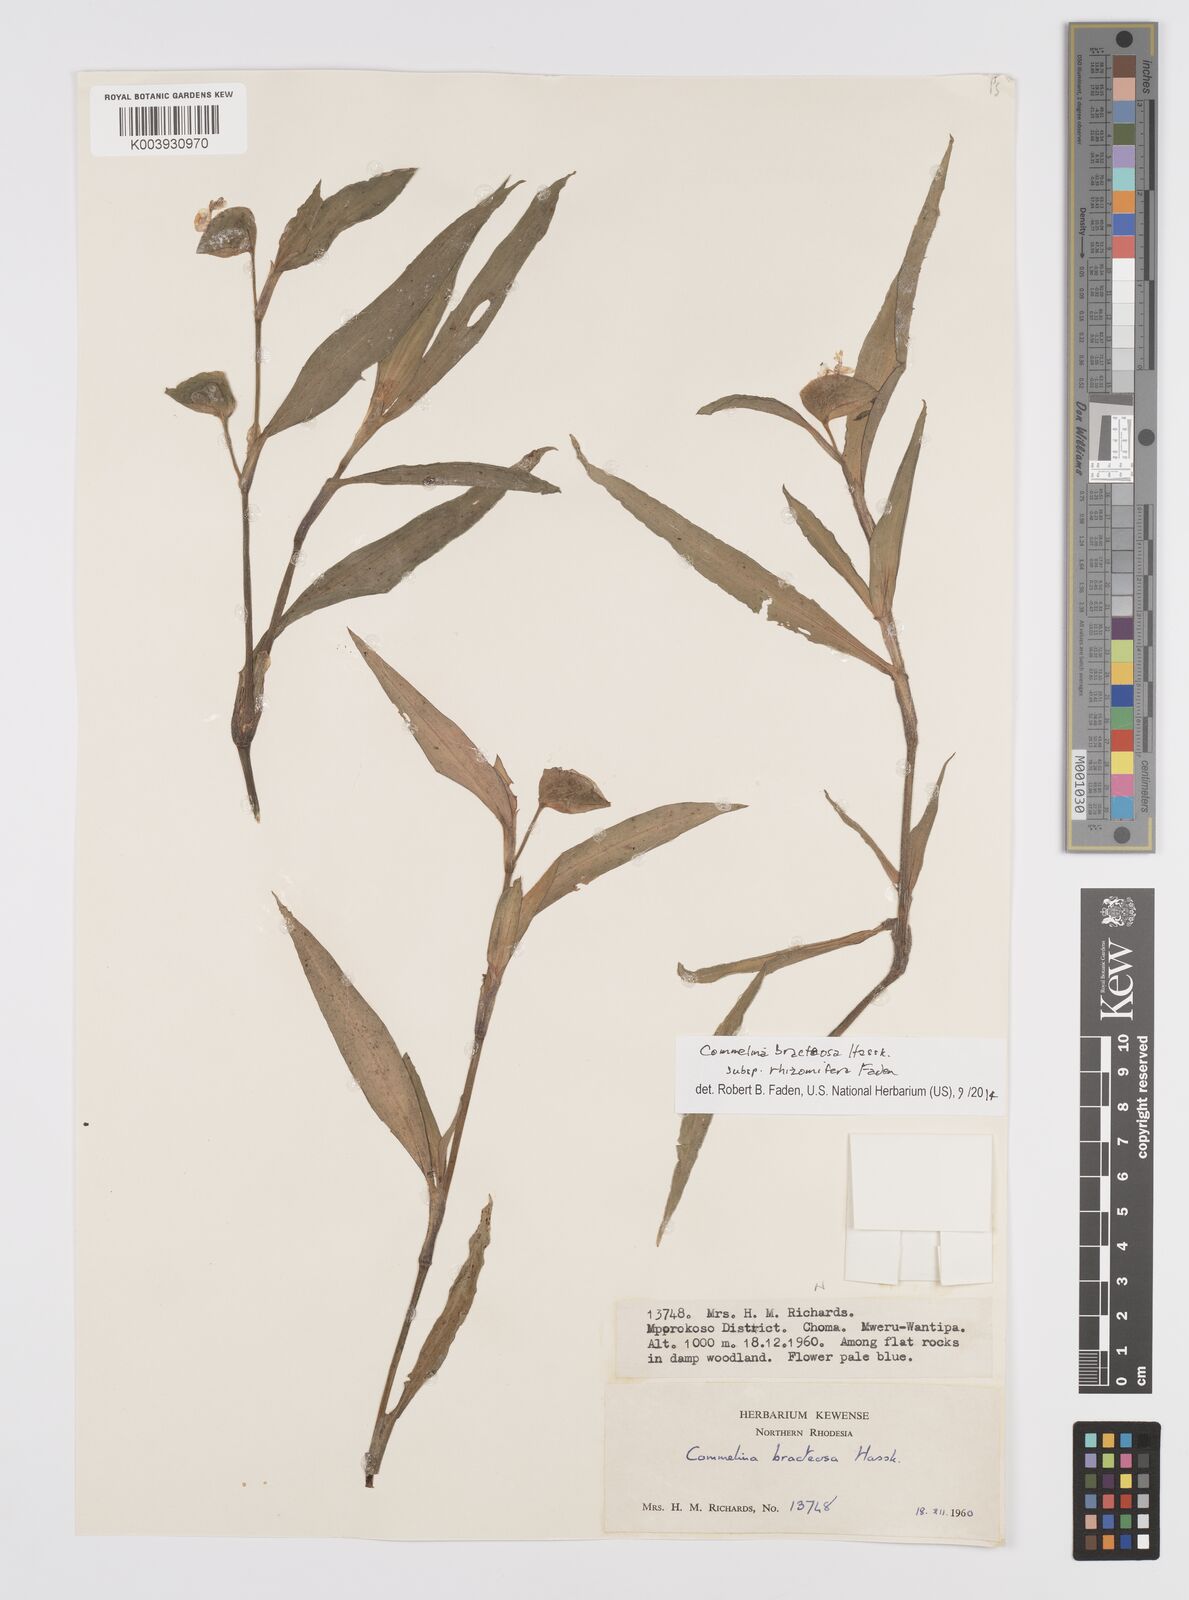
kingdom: Plantae
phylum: Tracheophyta
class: Liliopsida
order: Commelinales
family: Commelinaceae
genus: Commelina
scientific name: Commelina bracteosa
